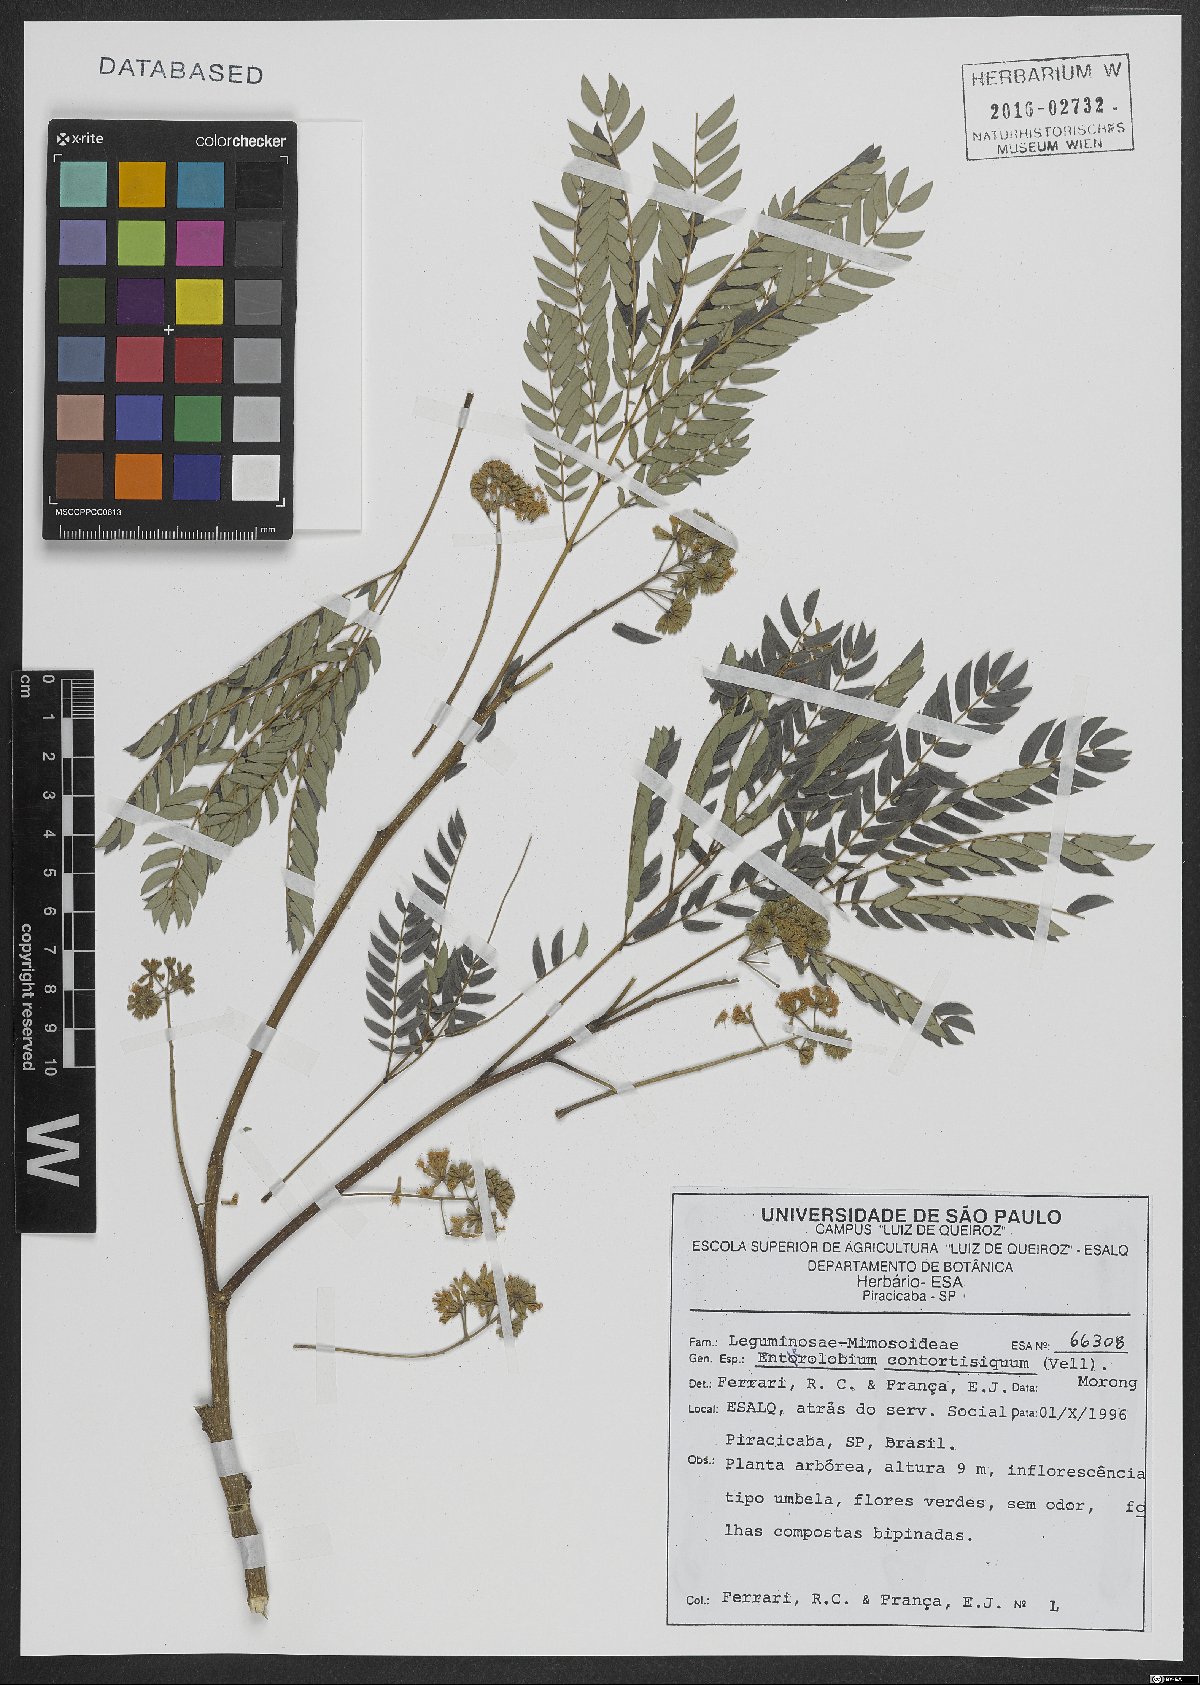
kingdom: Plantae
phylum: Tracheophyta
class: Magnoliopsida
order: Fabales
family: Fabaceae
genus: Enterolobium
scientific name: Enterolobium contortisiliquum
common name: Pacara earpod tree
